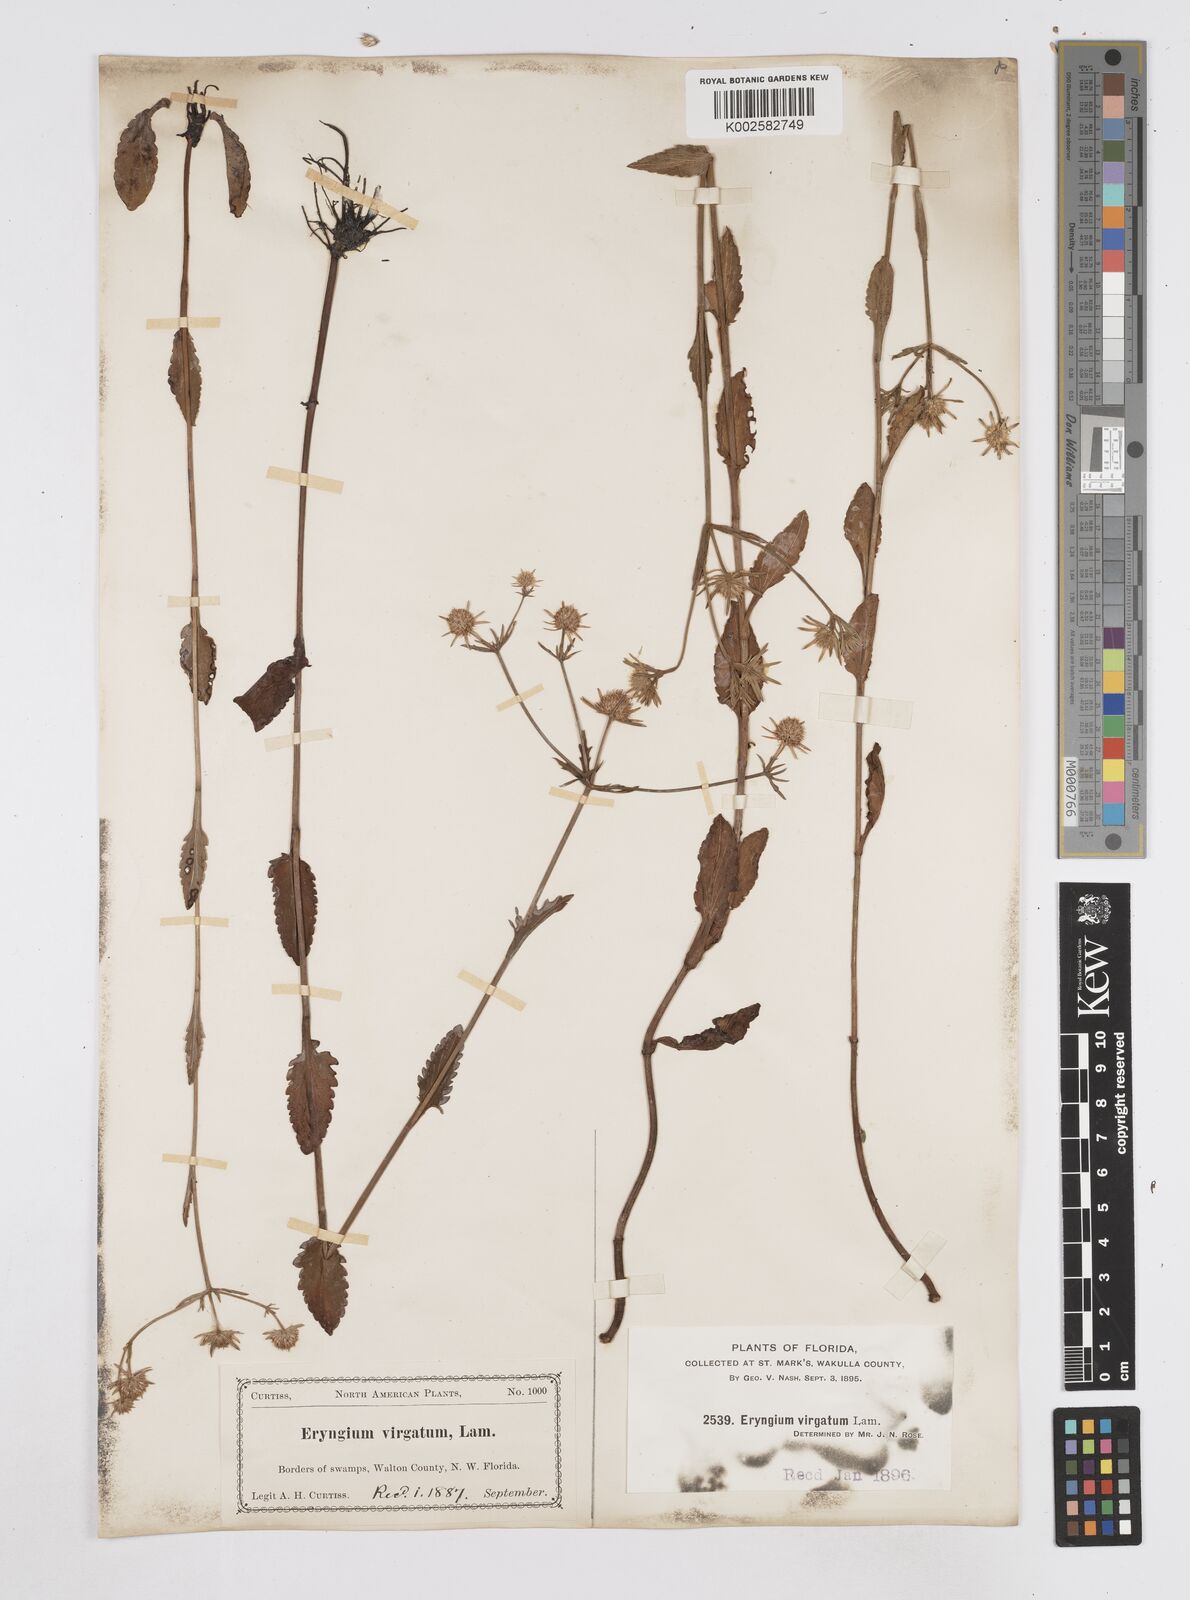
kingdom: Plantae
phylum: Tracheophyta
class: Magnoliopsida
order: Apiales
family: Apiaceae
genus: Eryngium
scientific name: Eryngium integrifolium
